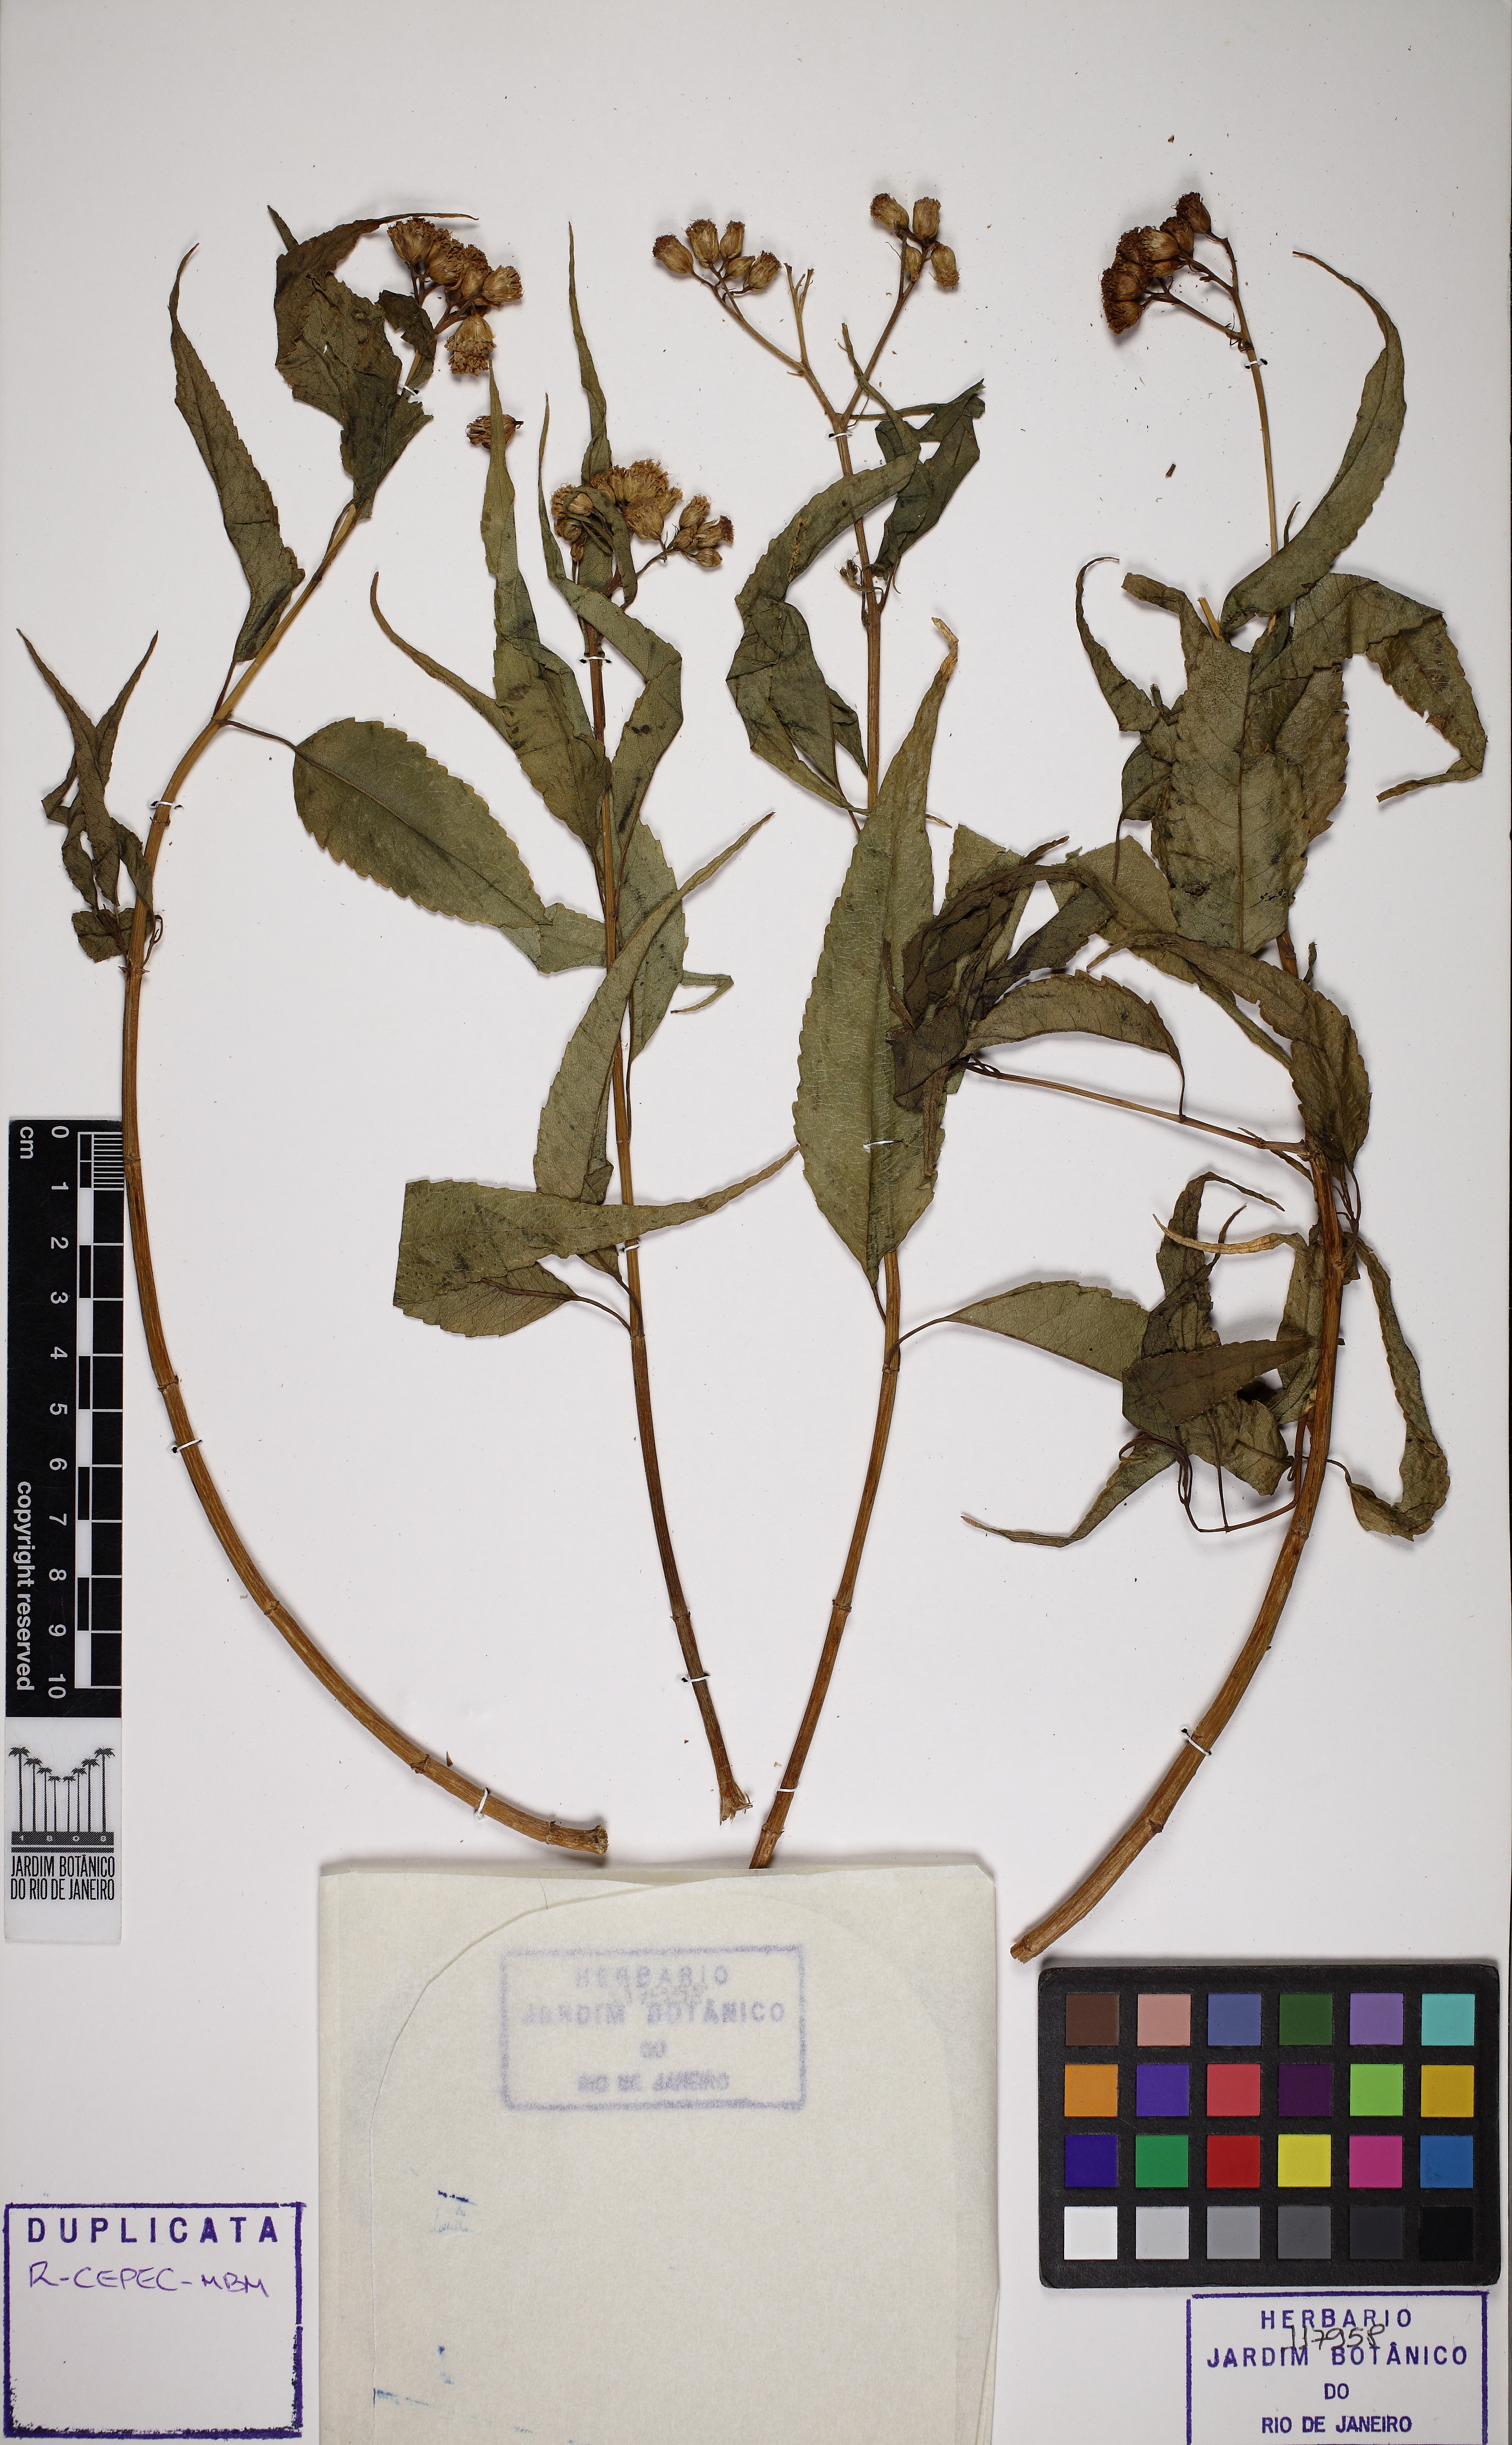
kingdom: Plantae
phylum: Tracheophyta
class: Magnoliopsida
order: Asterales
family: Asteraceae
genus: Acritopappus
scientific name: Acritopappus irwinii
